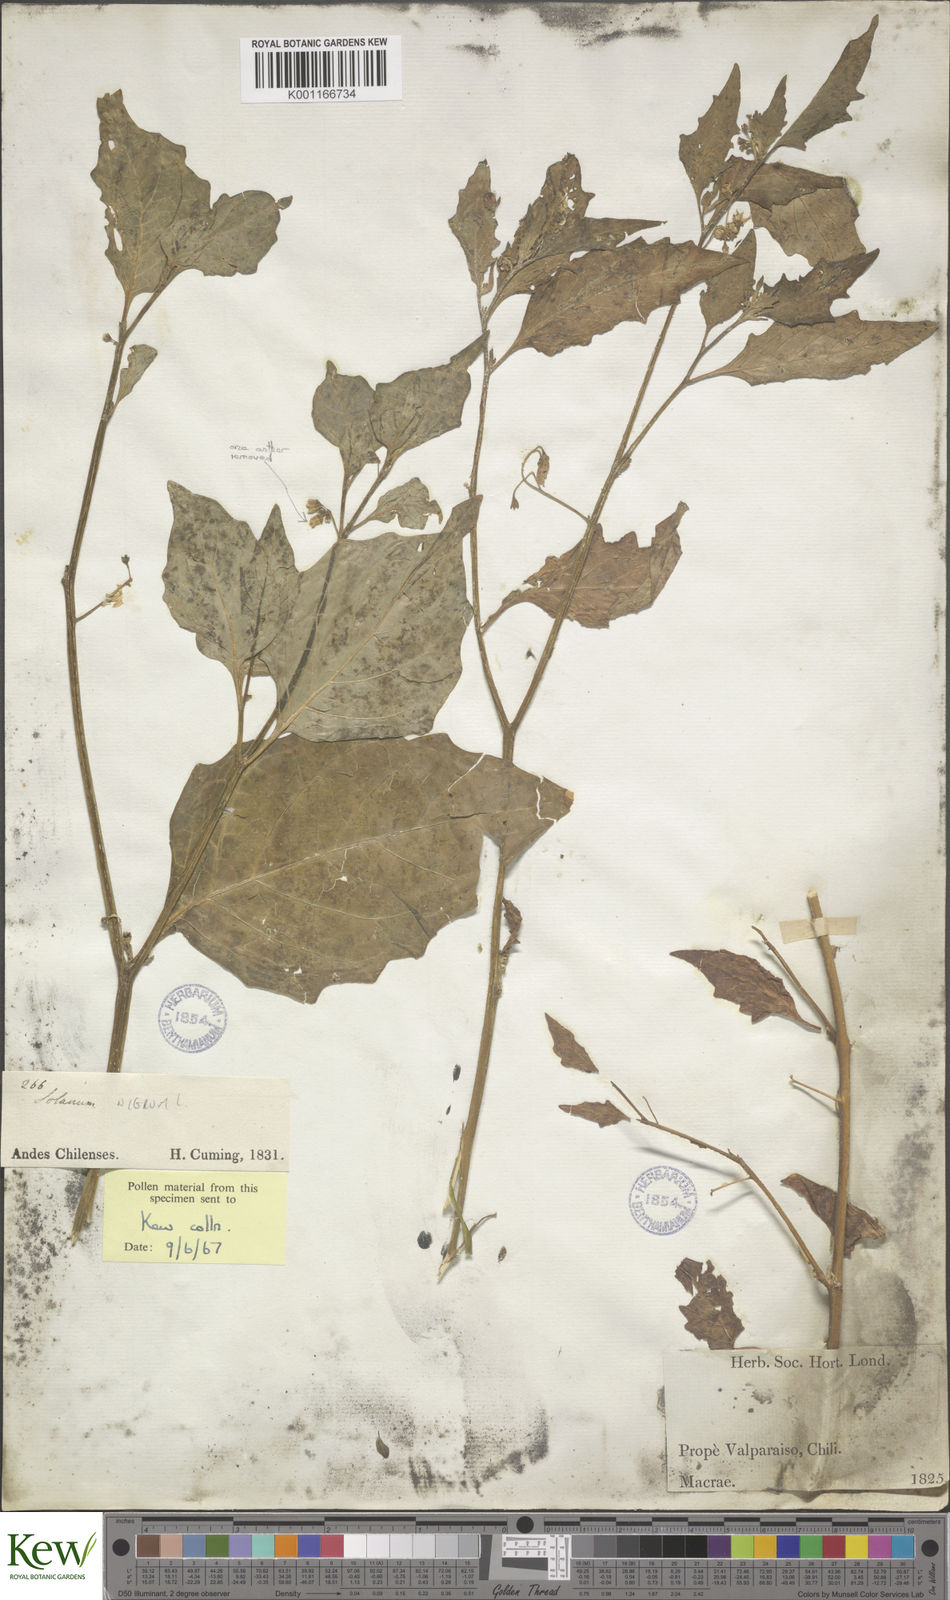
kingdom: Plantae
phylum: Tracheophyta
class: Magnoliopsida
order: Solanales
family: Solanaceae
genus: Solanum
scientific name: Solanum
